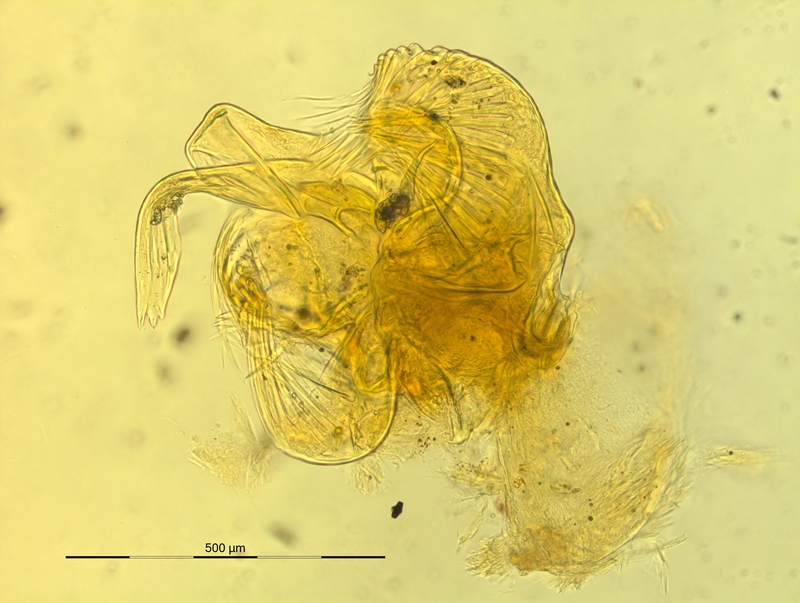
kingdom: Animalia
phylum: Arthropoda
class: Diplopoda
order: Chordeumatida
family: Craspedosomatidae
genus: Bergamosoma
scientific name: Bergamosoma hessei
